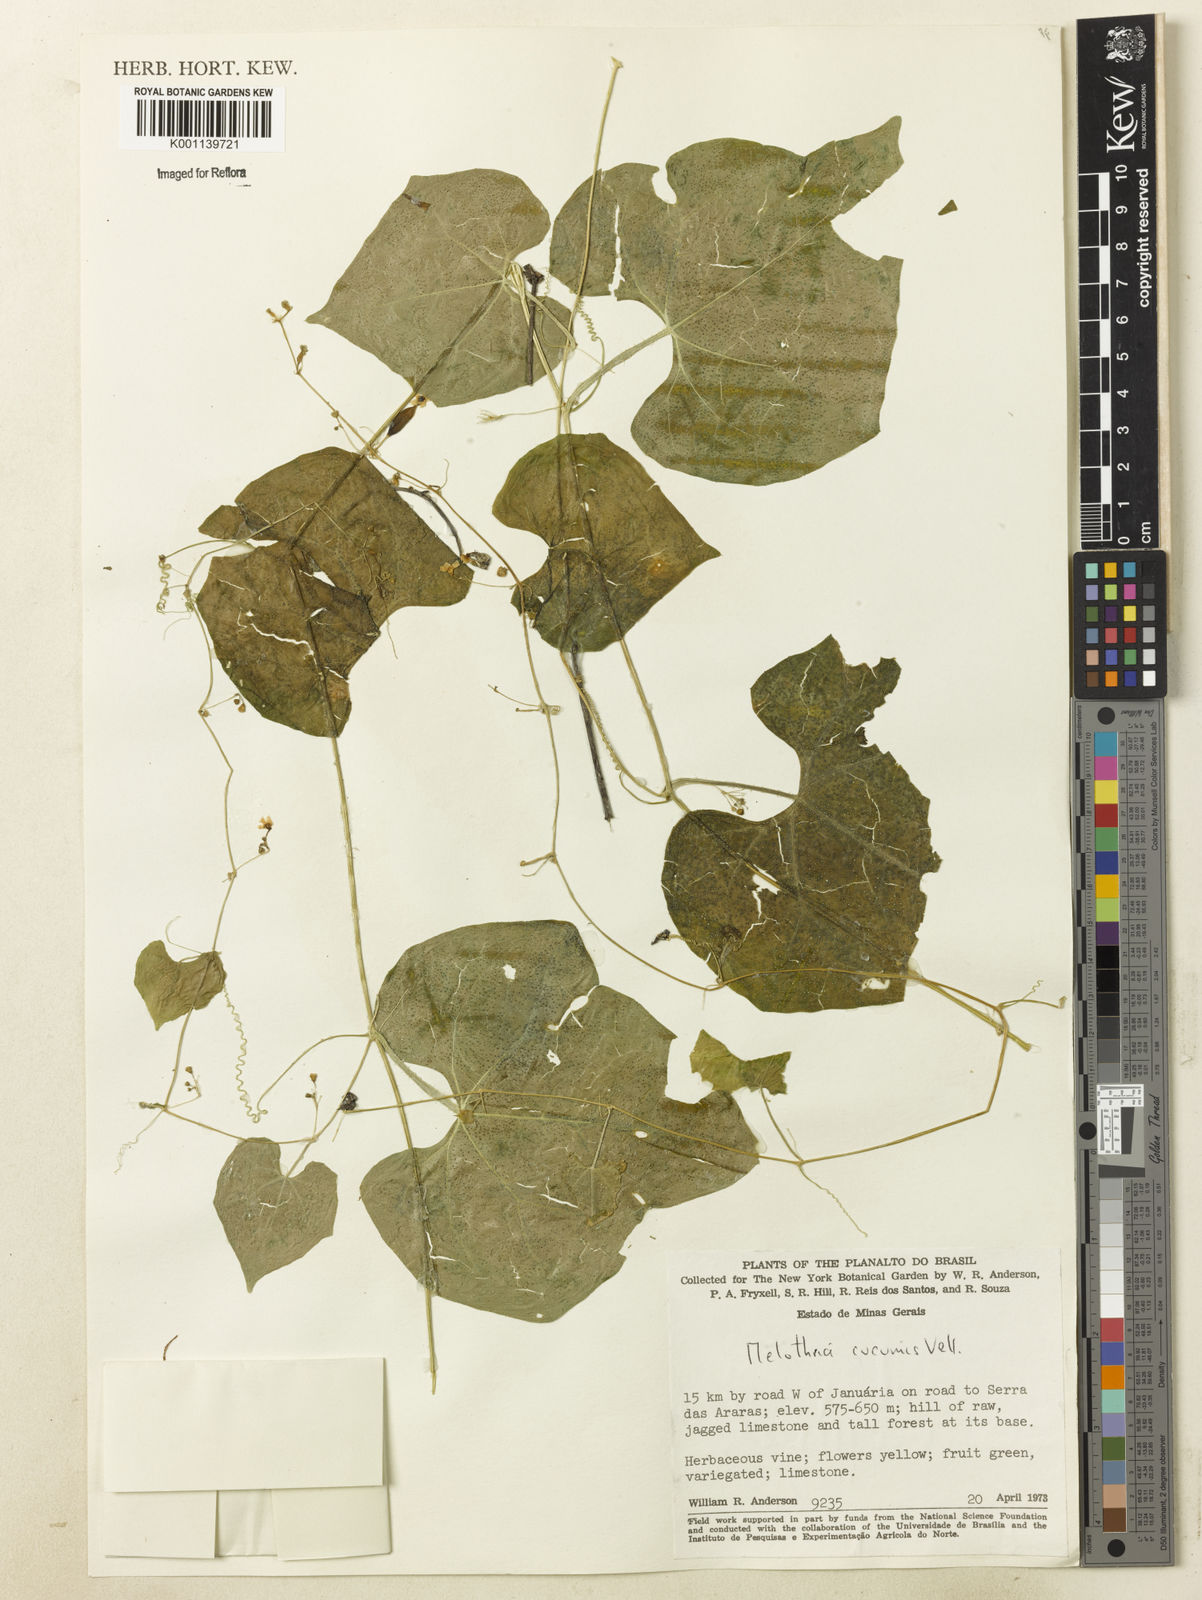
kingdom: Plantae
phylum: Tracheophyta
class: Magnoliopsida
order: Cucurbitales
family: Cucurbitaceae
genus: Melothria
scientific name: Melothria cucumis
